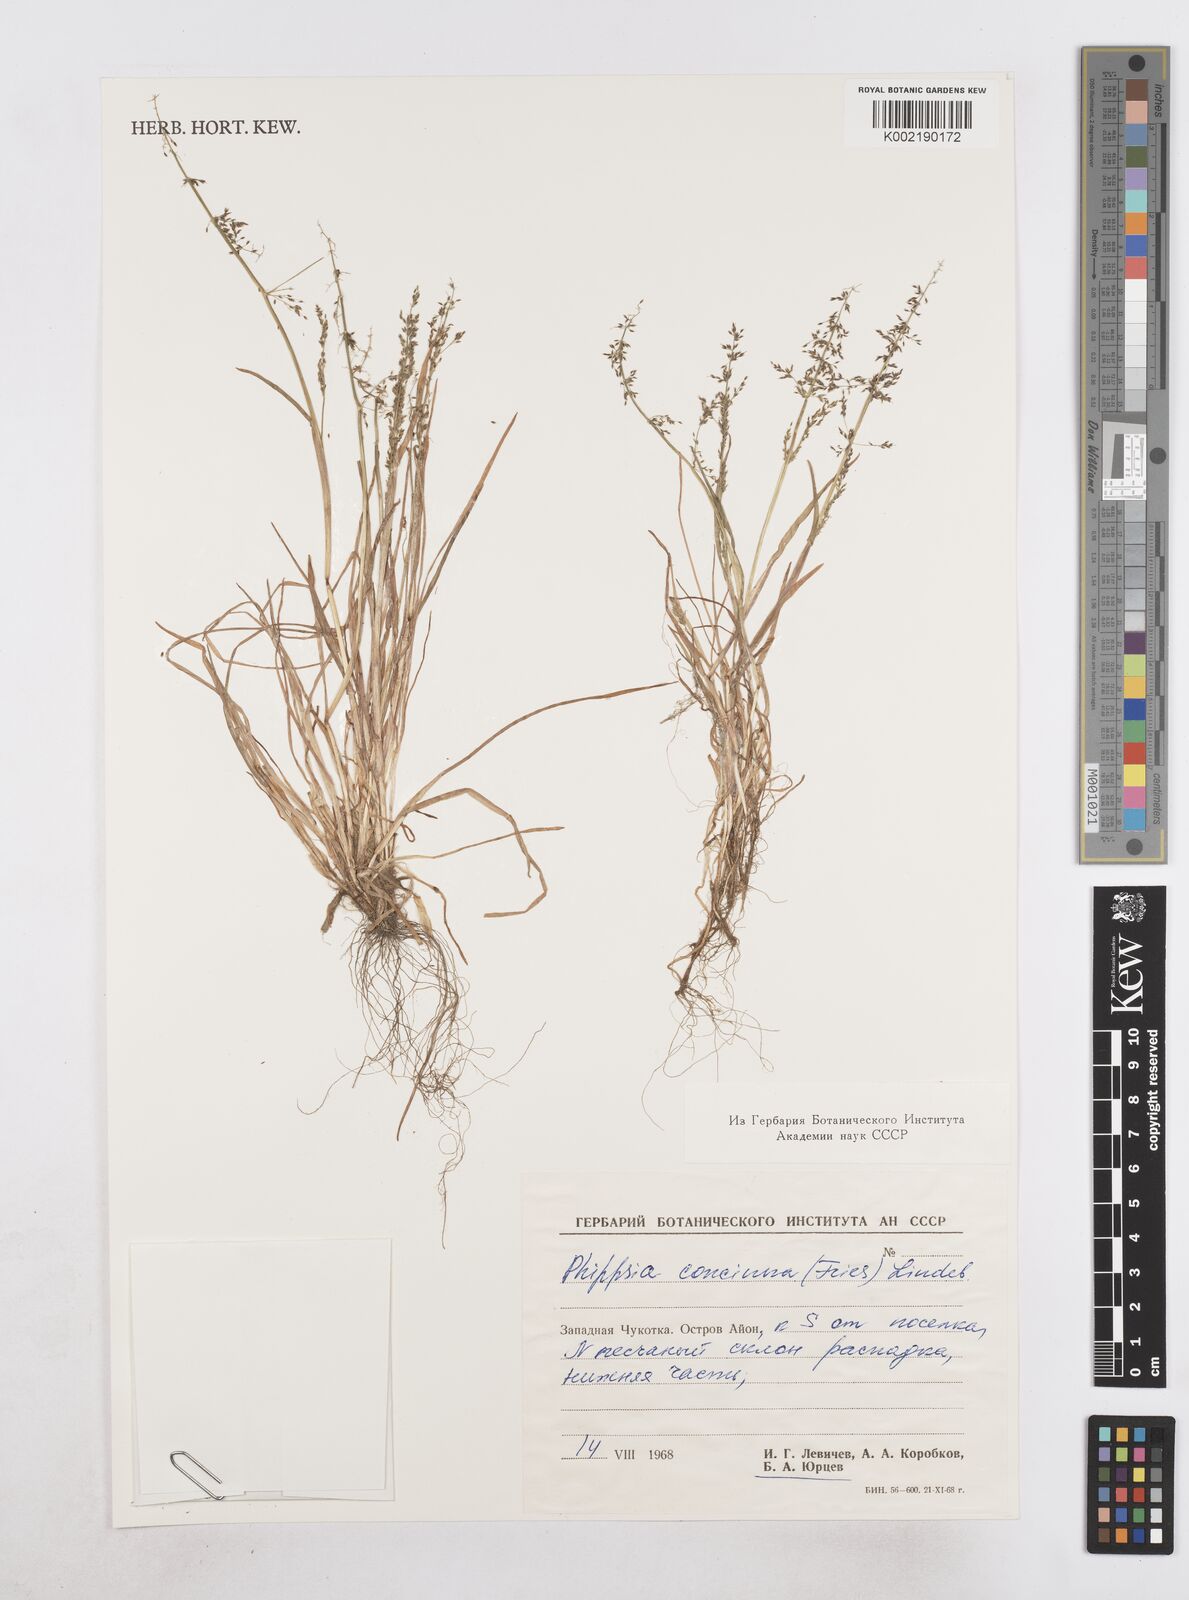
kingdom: Plantae
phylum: Tracheophyta
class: Liliopsida
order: Poales
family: Poaceae
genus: Phippsia
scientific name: Phippsia concinna
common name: Snowgrass
